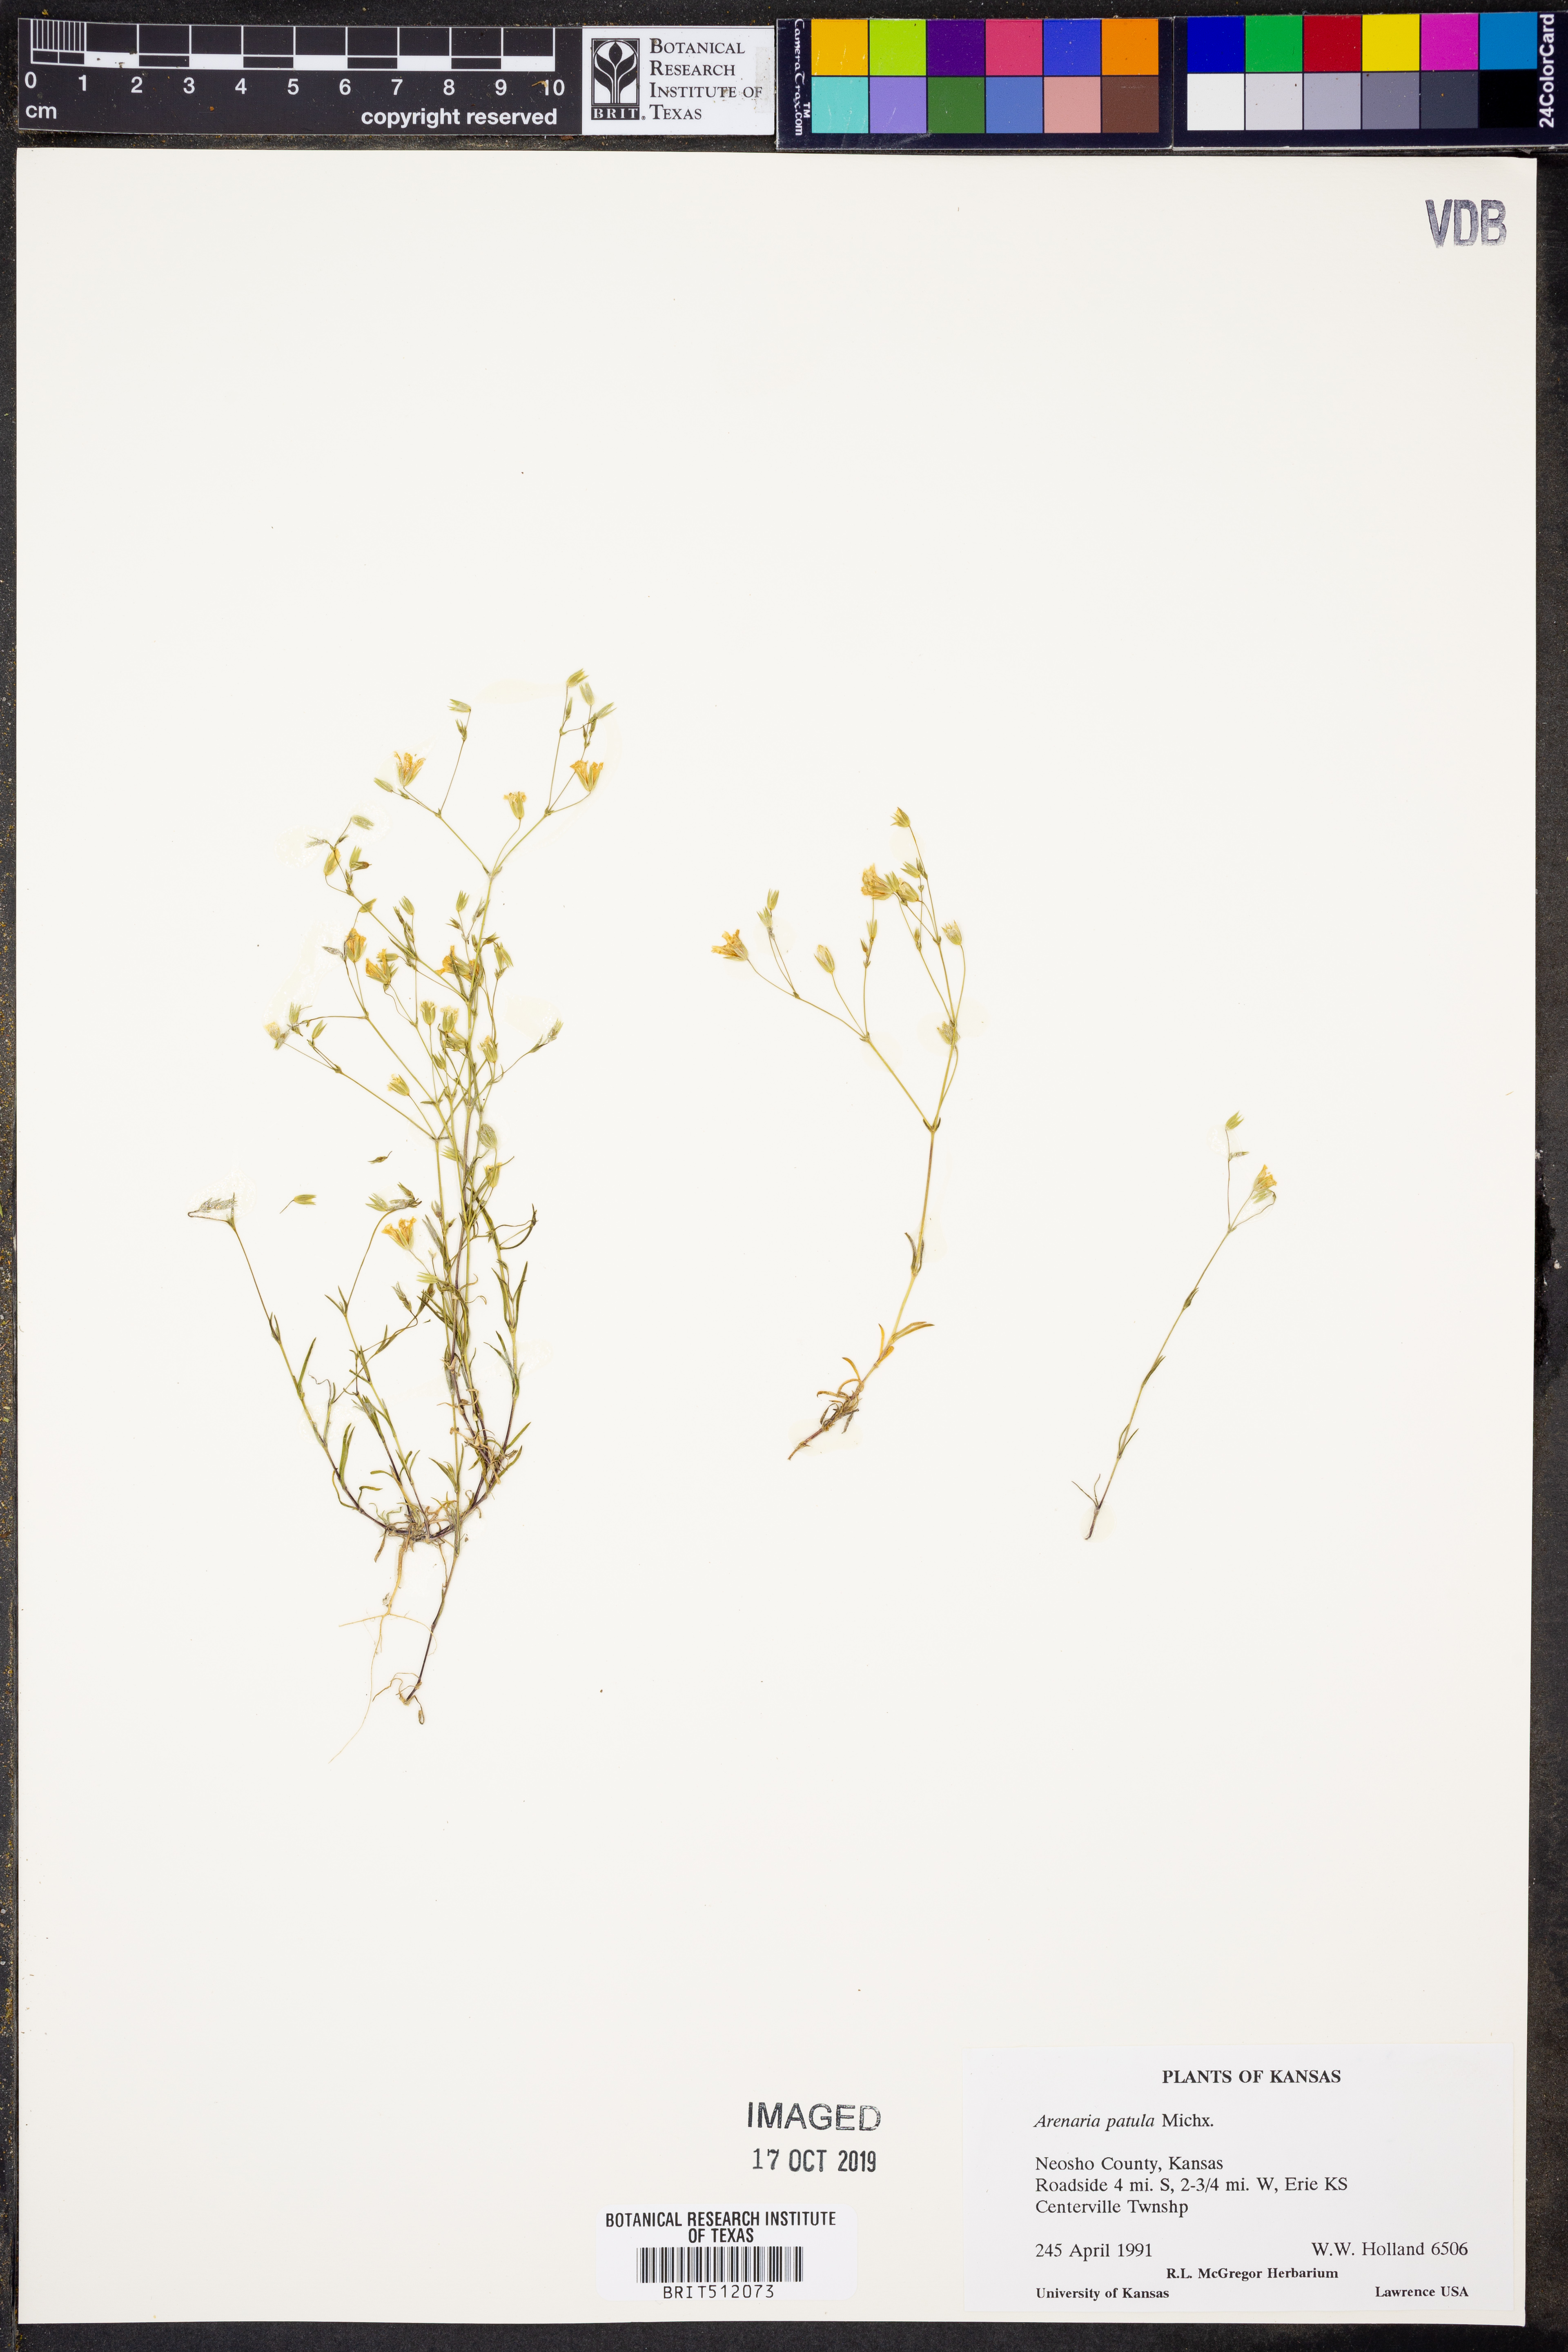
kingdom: Plantae
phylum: Tracheophyta
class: Magnoliopsida
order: Caryophyllales
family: Caryophyllaceae
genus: Mononeuria
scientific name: Mononeuria patula
